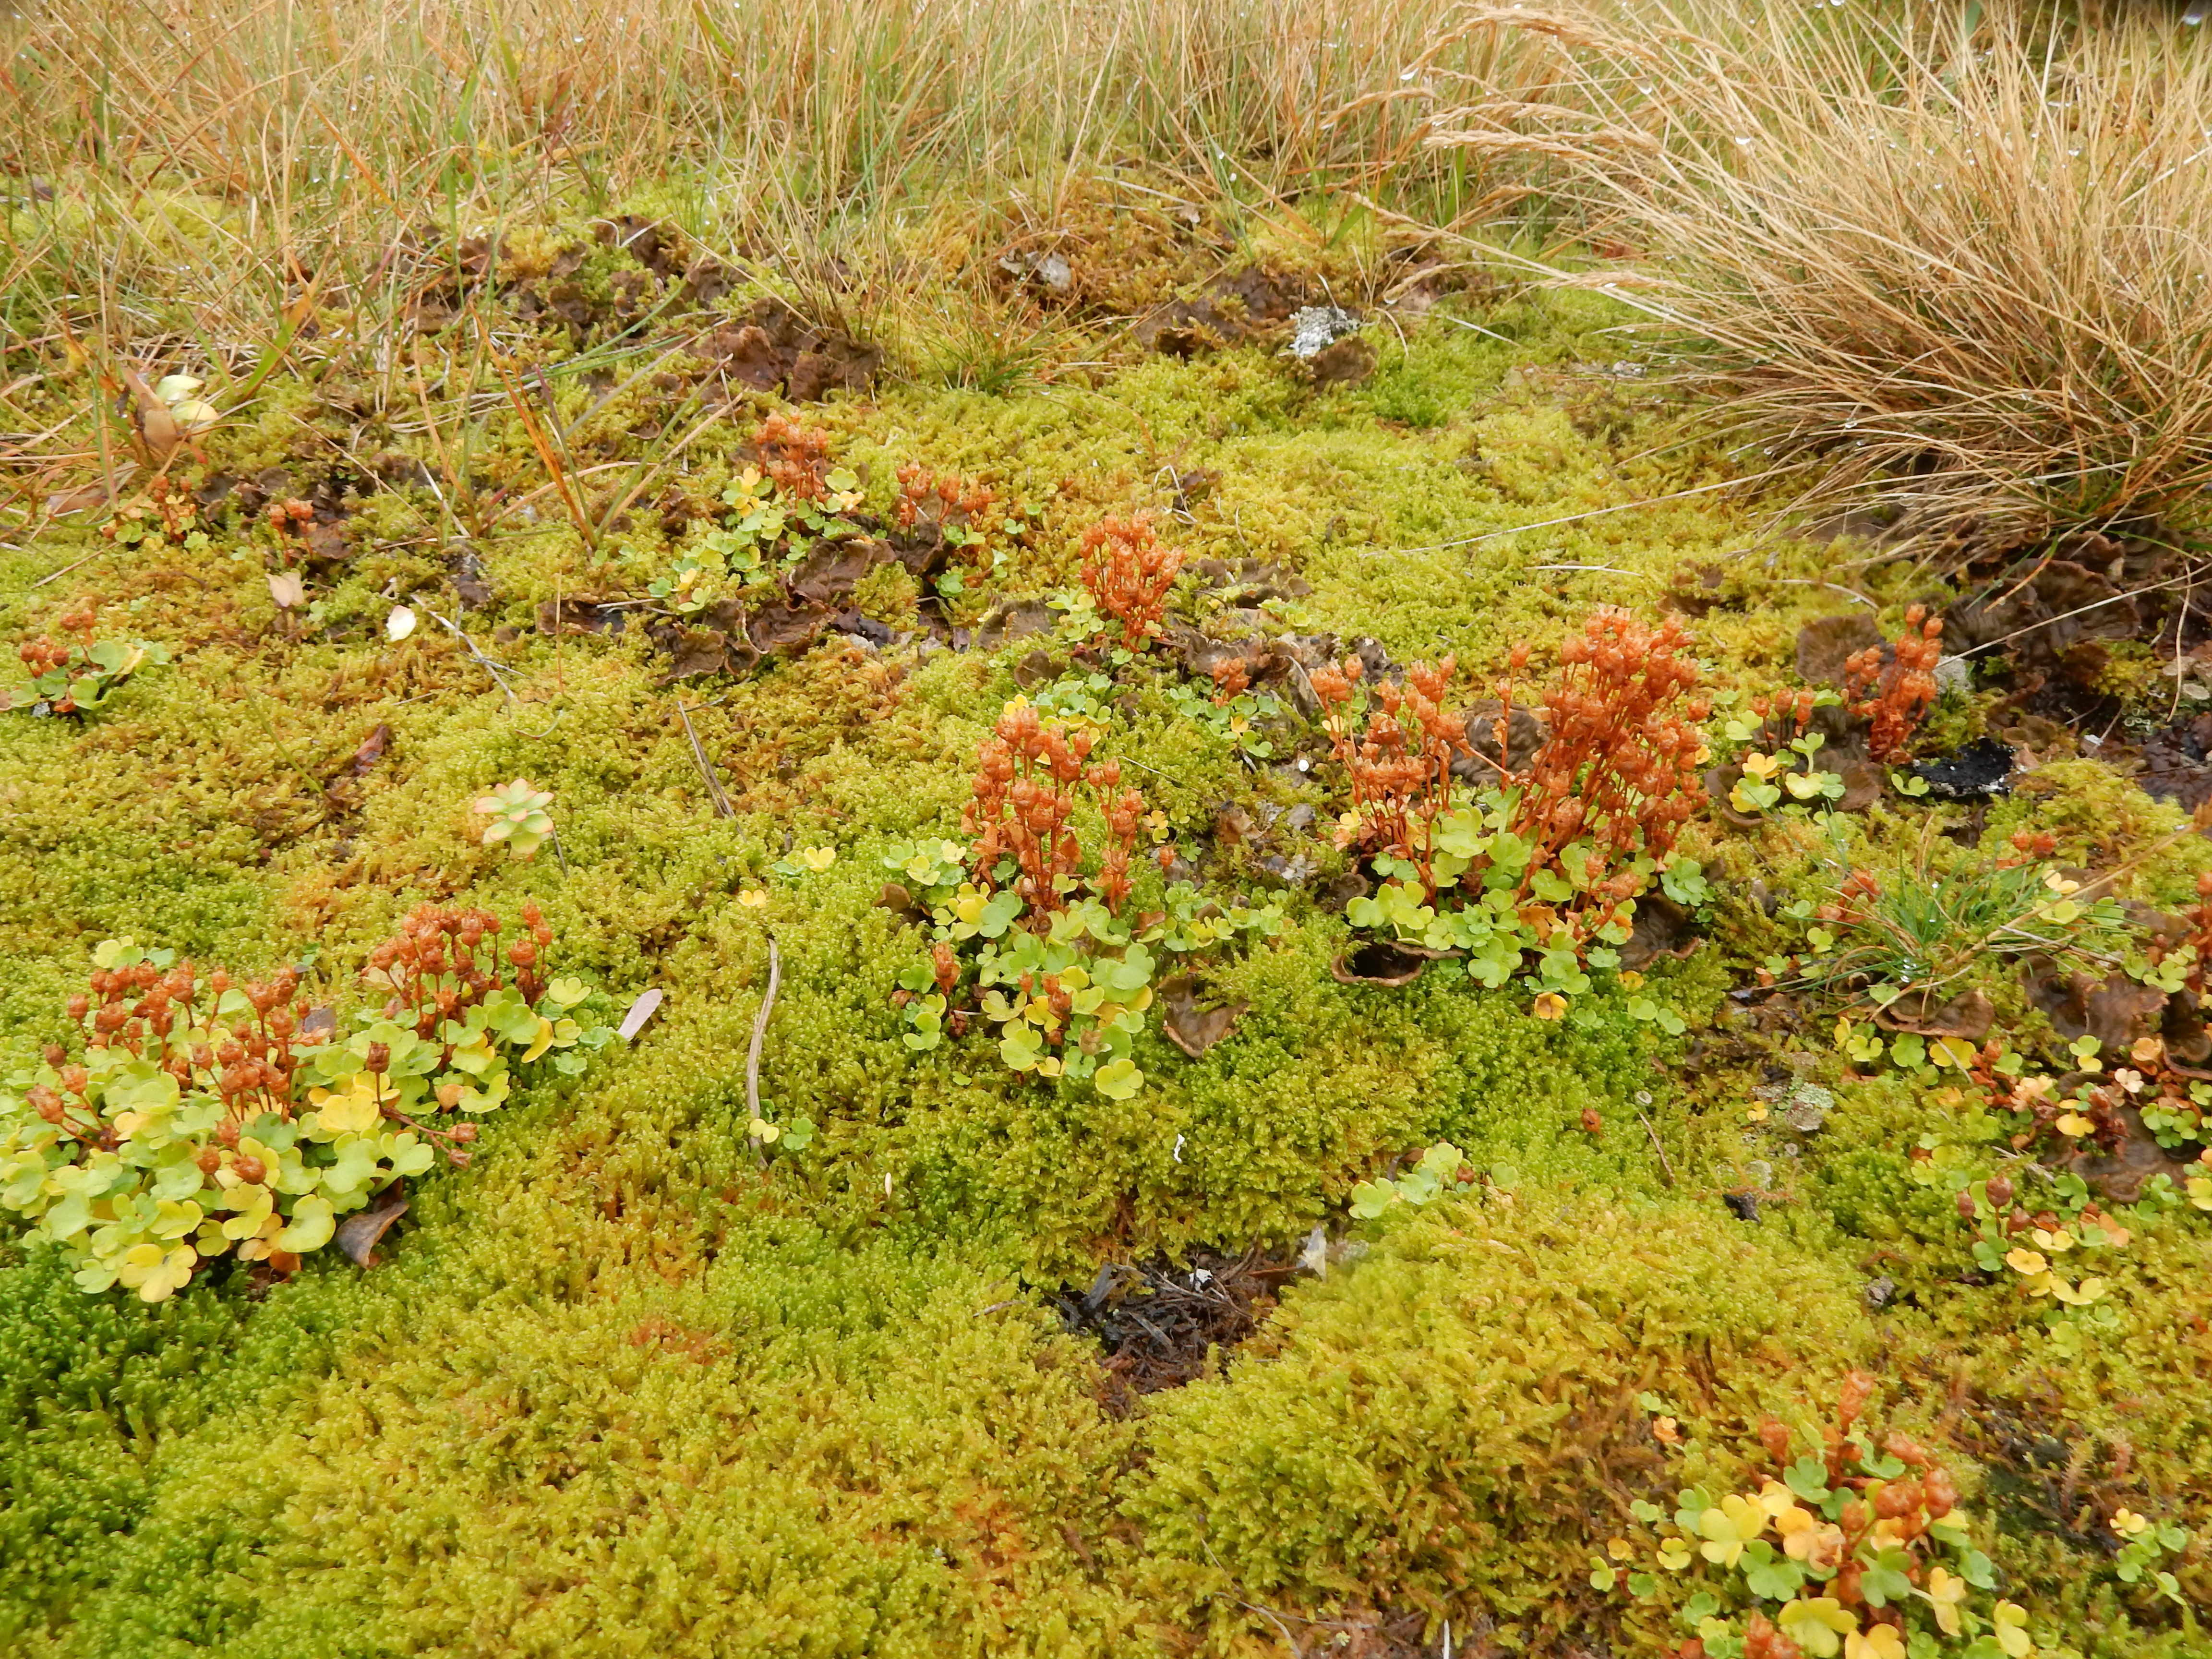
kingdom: Plantae
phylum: Tracheophyta
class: Magnoliopsida
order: Saxifragales
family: Saxifragaceae
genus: Saxifraga
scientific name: Saxifraga rivularis
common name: Highland saxifrage
